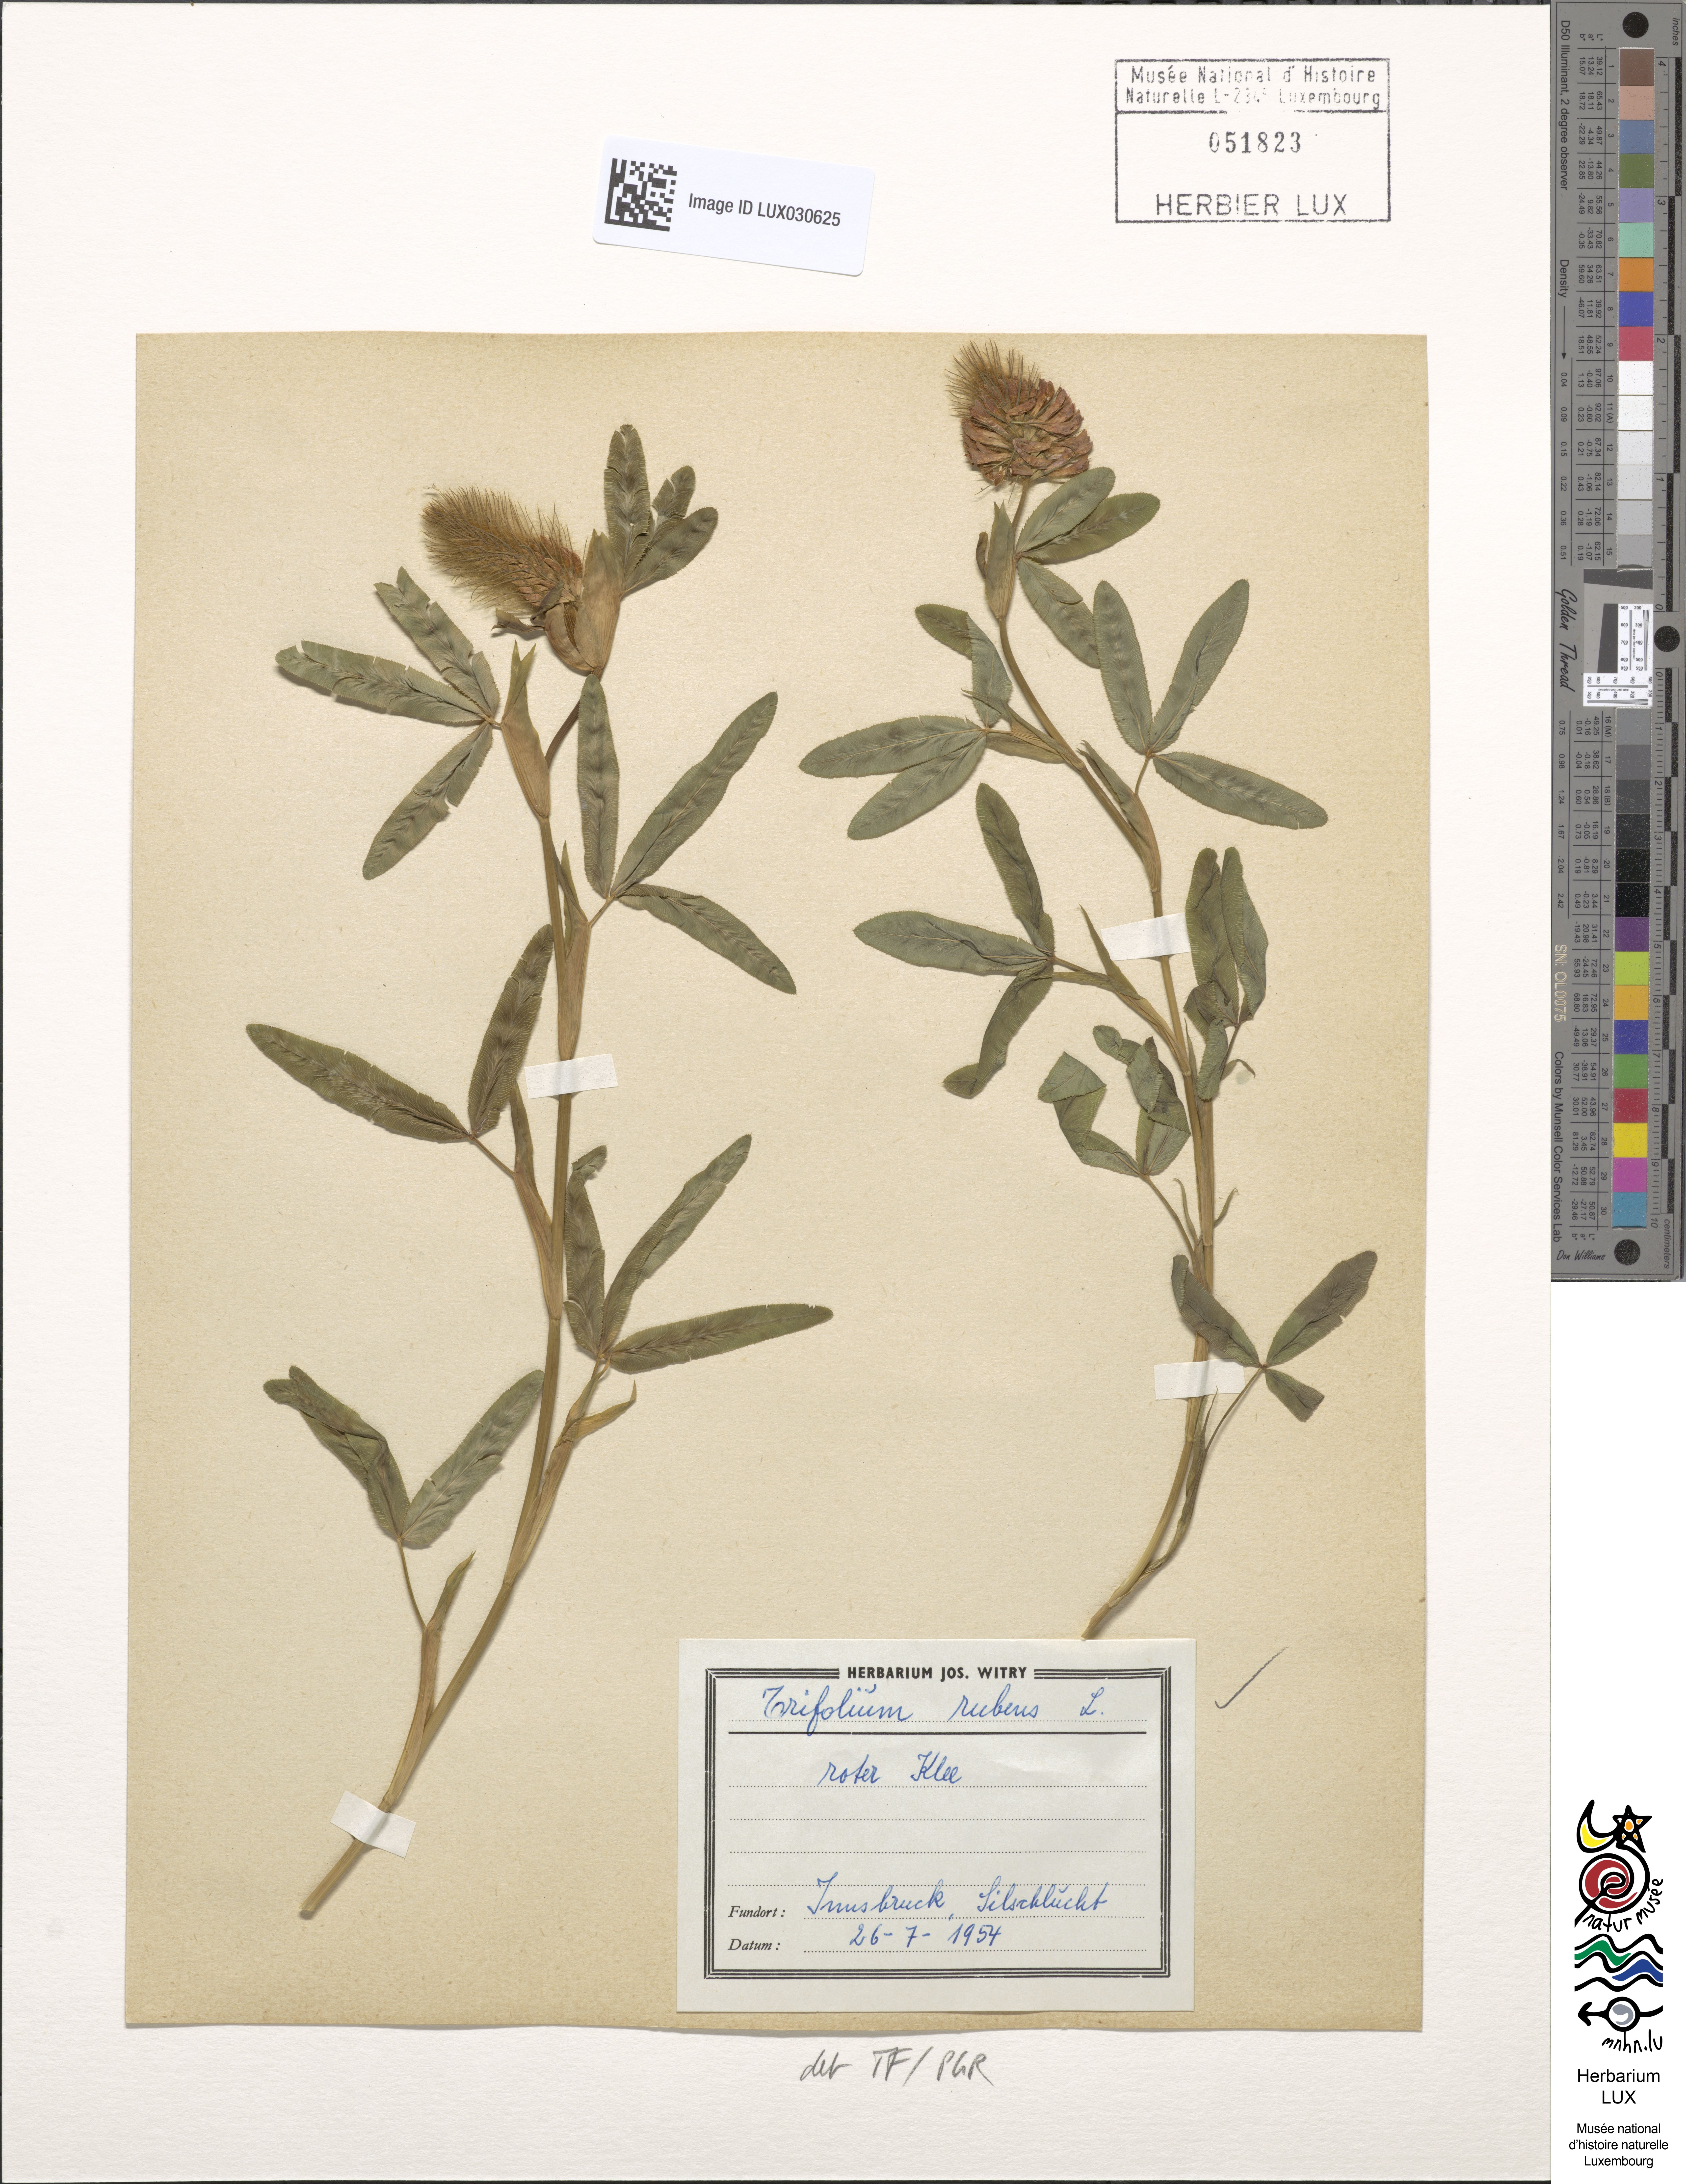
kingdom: Plantae
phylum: Tracheophyta
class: Magnoliopsida
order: Fabales
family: Fabaceae
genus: Trifolium
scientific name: Trifolium rubens
